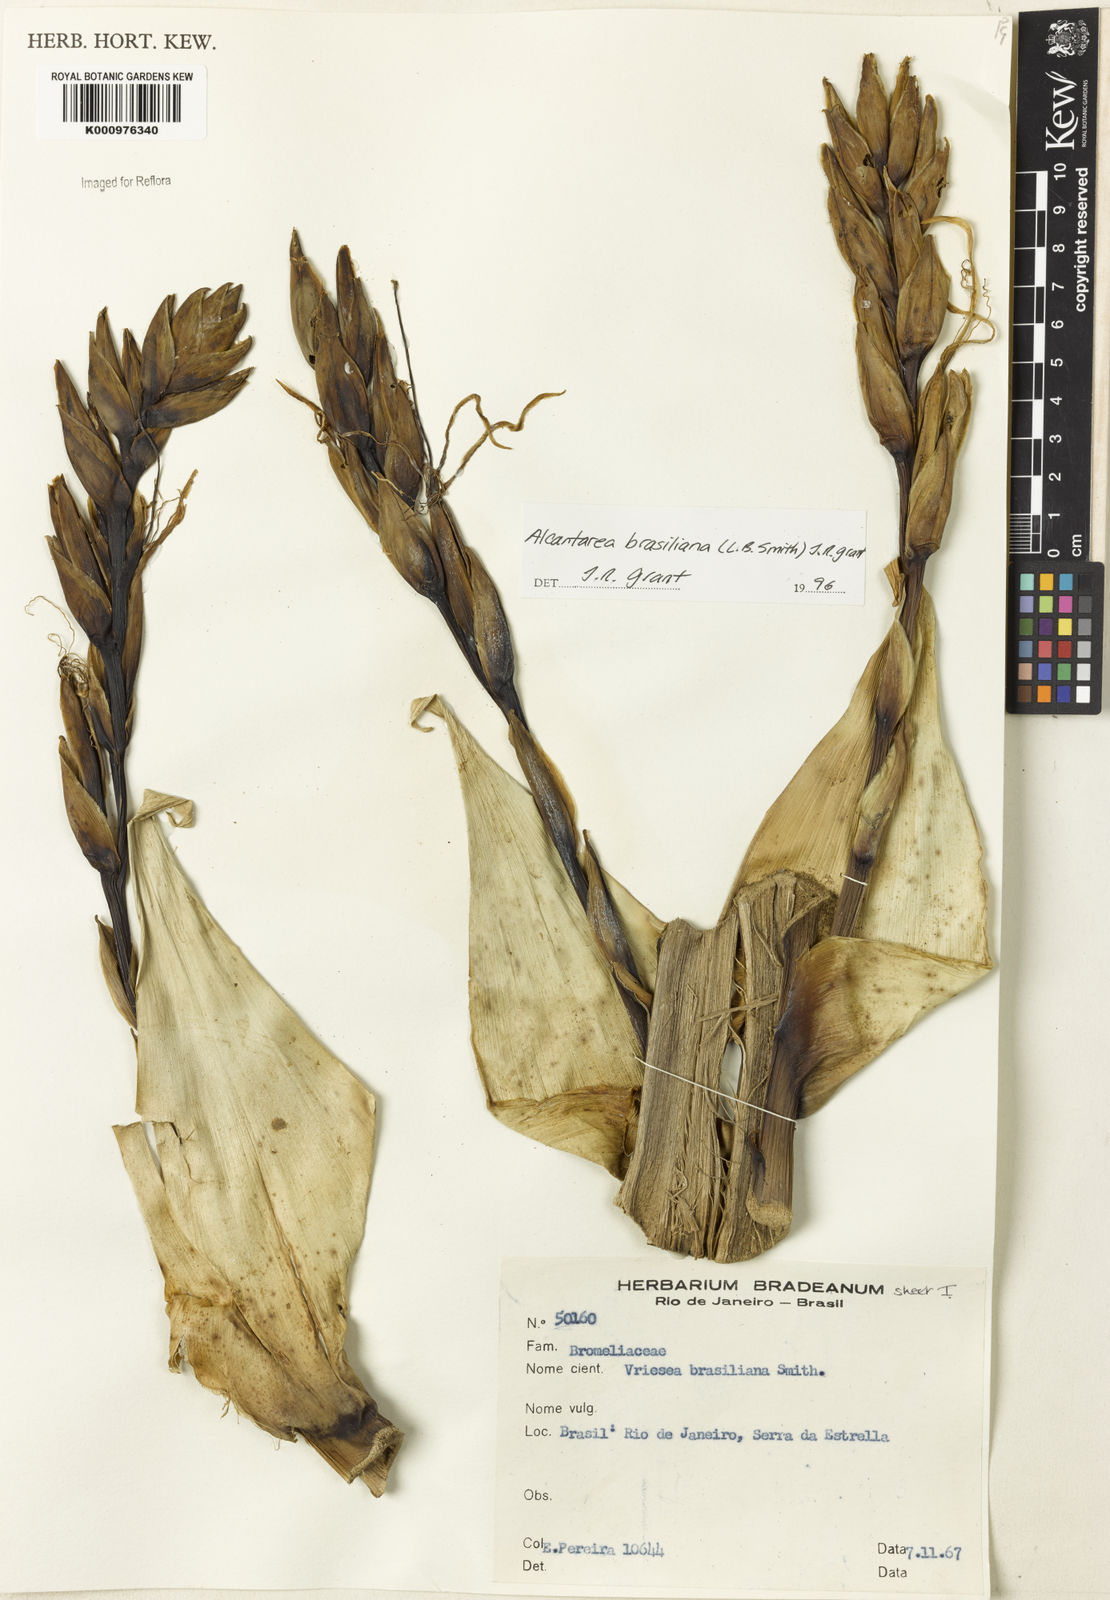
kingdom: Plantae
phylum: Tracheophyta
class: Liliopsida
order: Poales
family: Bromeliaceae
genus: Alcantarea
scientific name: Alcantarea brasiliana
